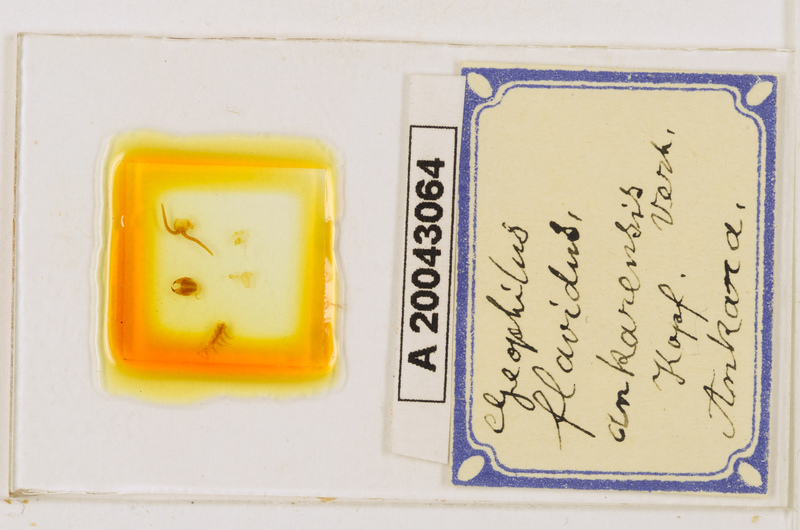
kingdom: Animalia
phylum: Arthropoda
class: Chilopoda
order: Geophilomorpha
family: Geophilidae
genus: Clinopodes
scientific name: Clinopodes flavidus
